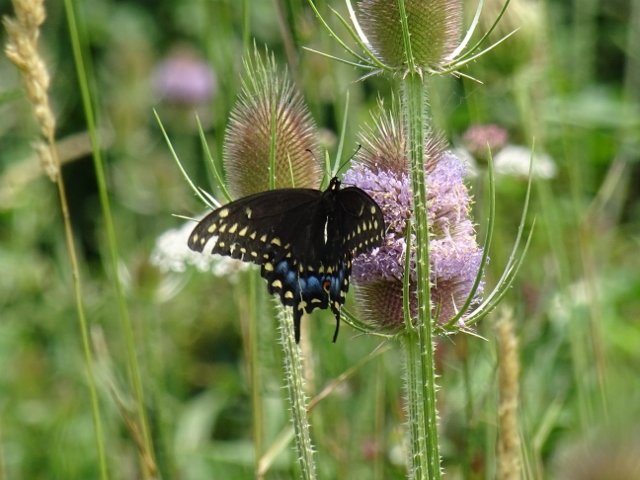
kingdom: Animalia
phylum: Arthropoda
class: Insecta
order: Lepidoptera
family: Papilionidae
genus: Papilio
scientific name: Papilio polyxenes
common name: Black Swallowtail
